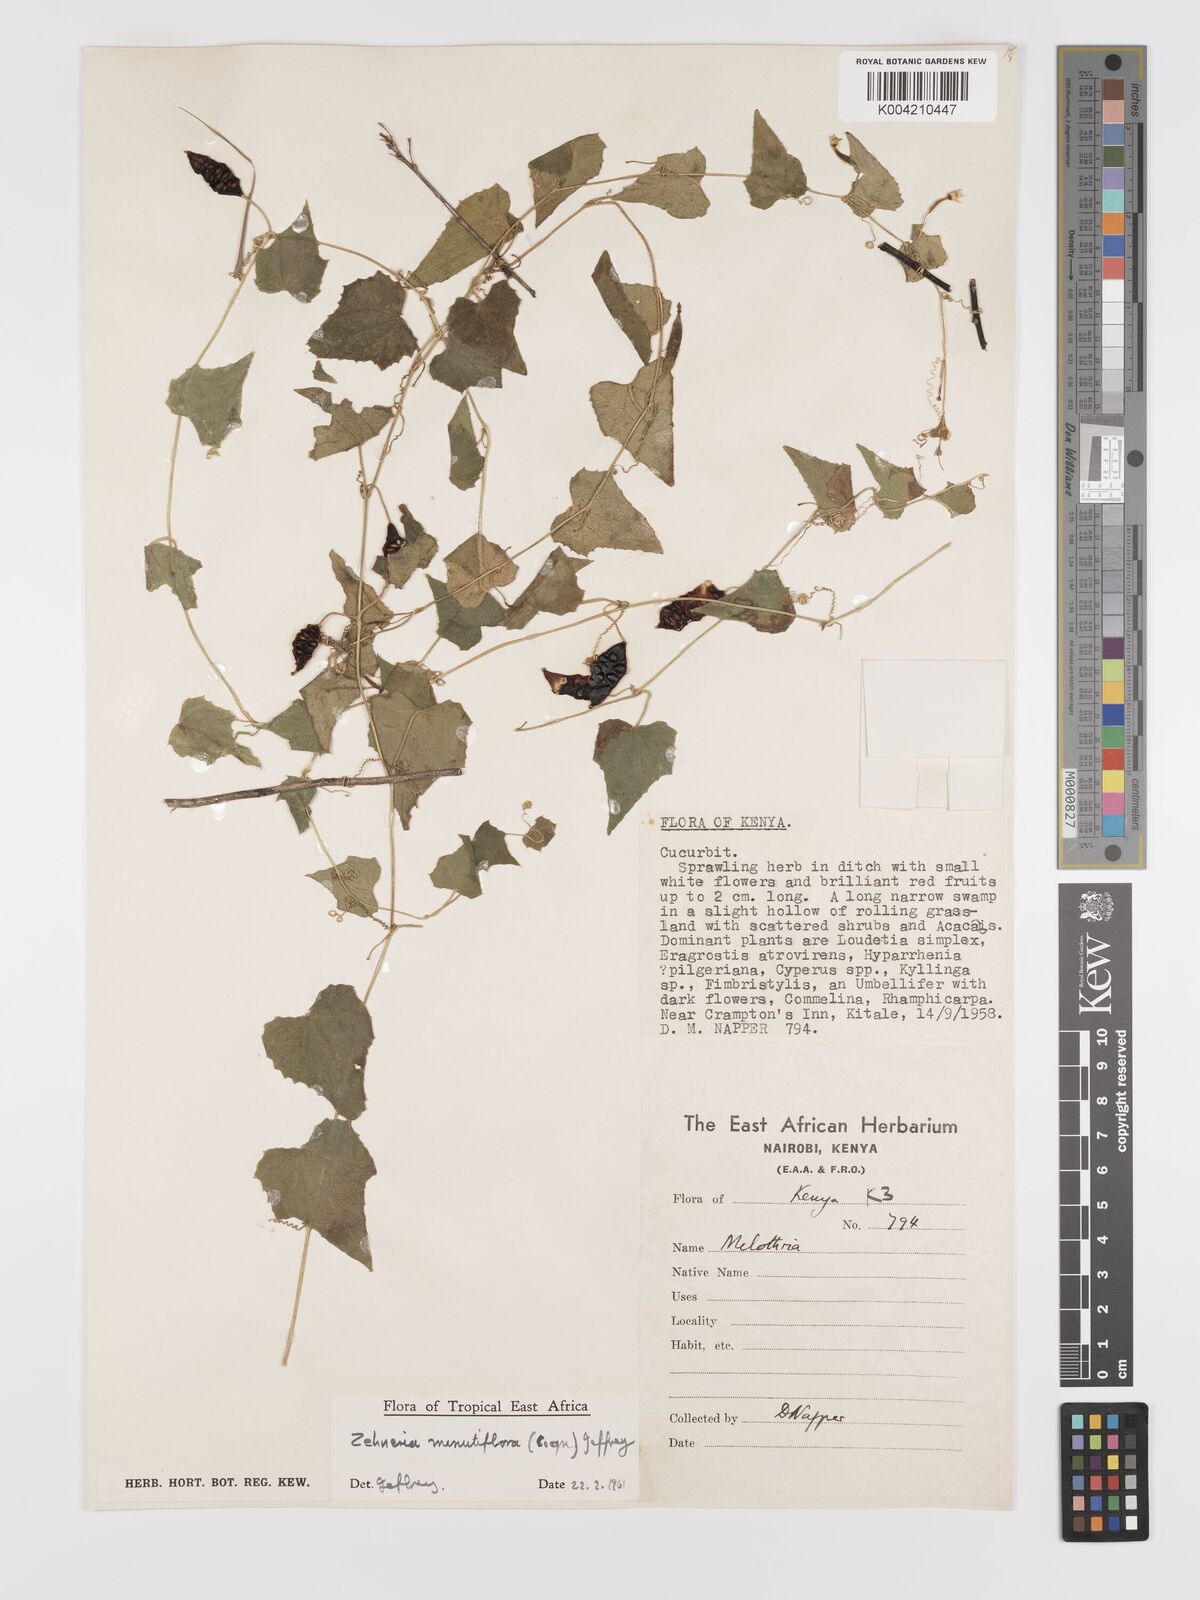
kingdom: Plantae
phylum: Tracheophyta
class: Magnoliopsida
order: Cucurbitales
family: Cucurbitaceae
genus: Zehneria
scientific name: Zehneria minutiflora
